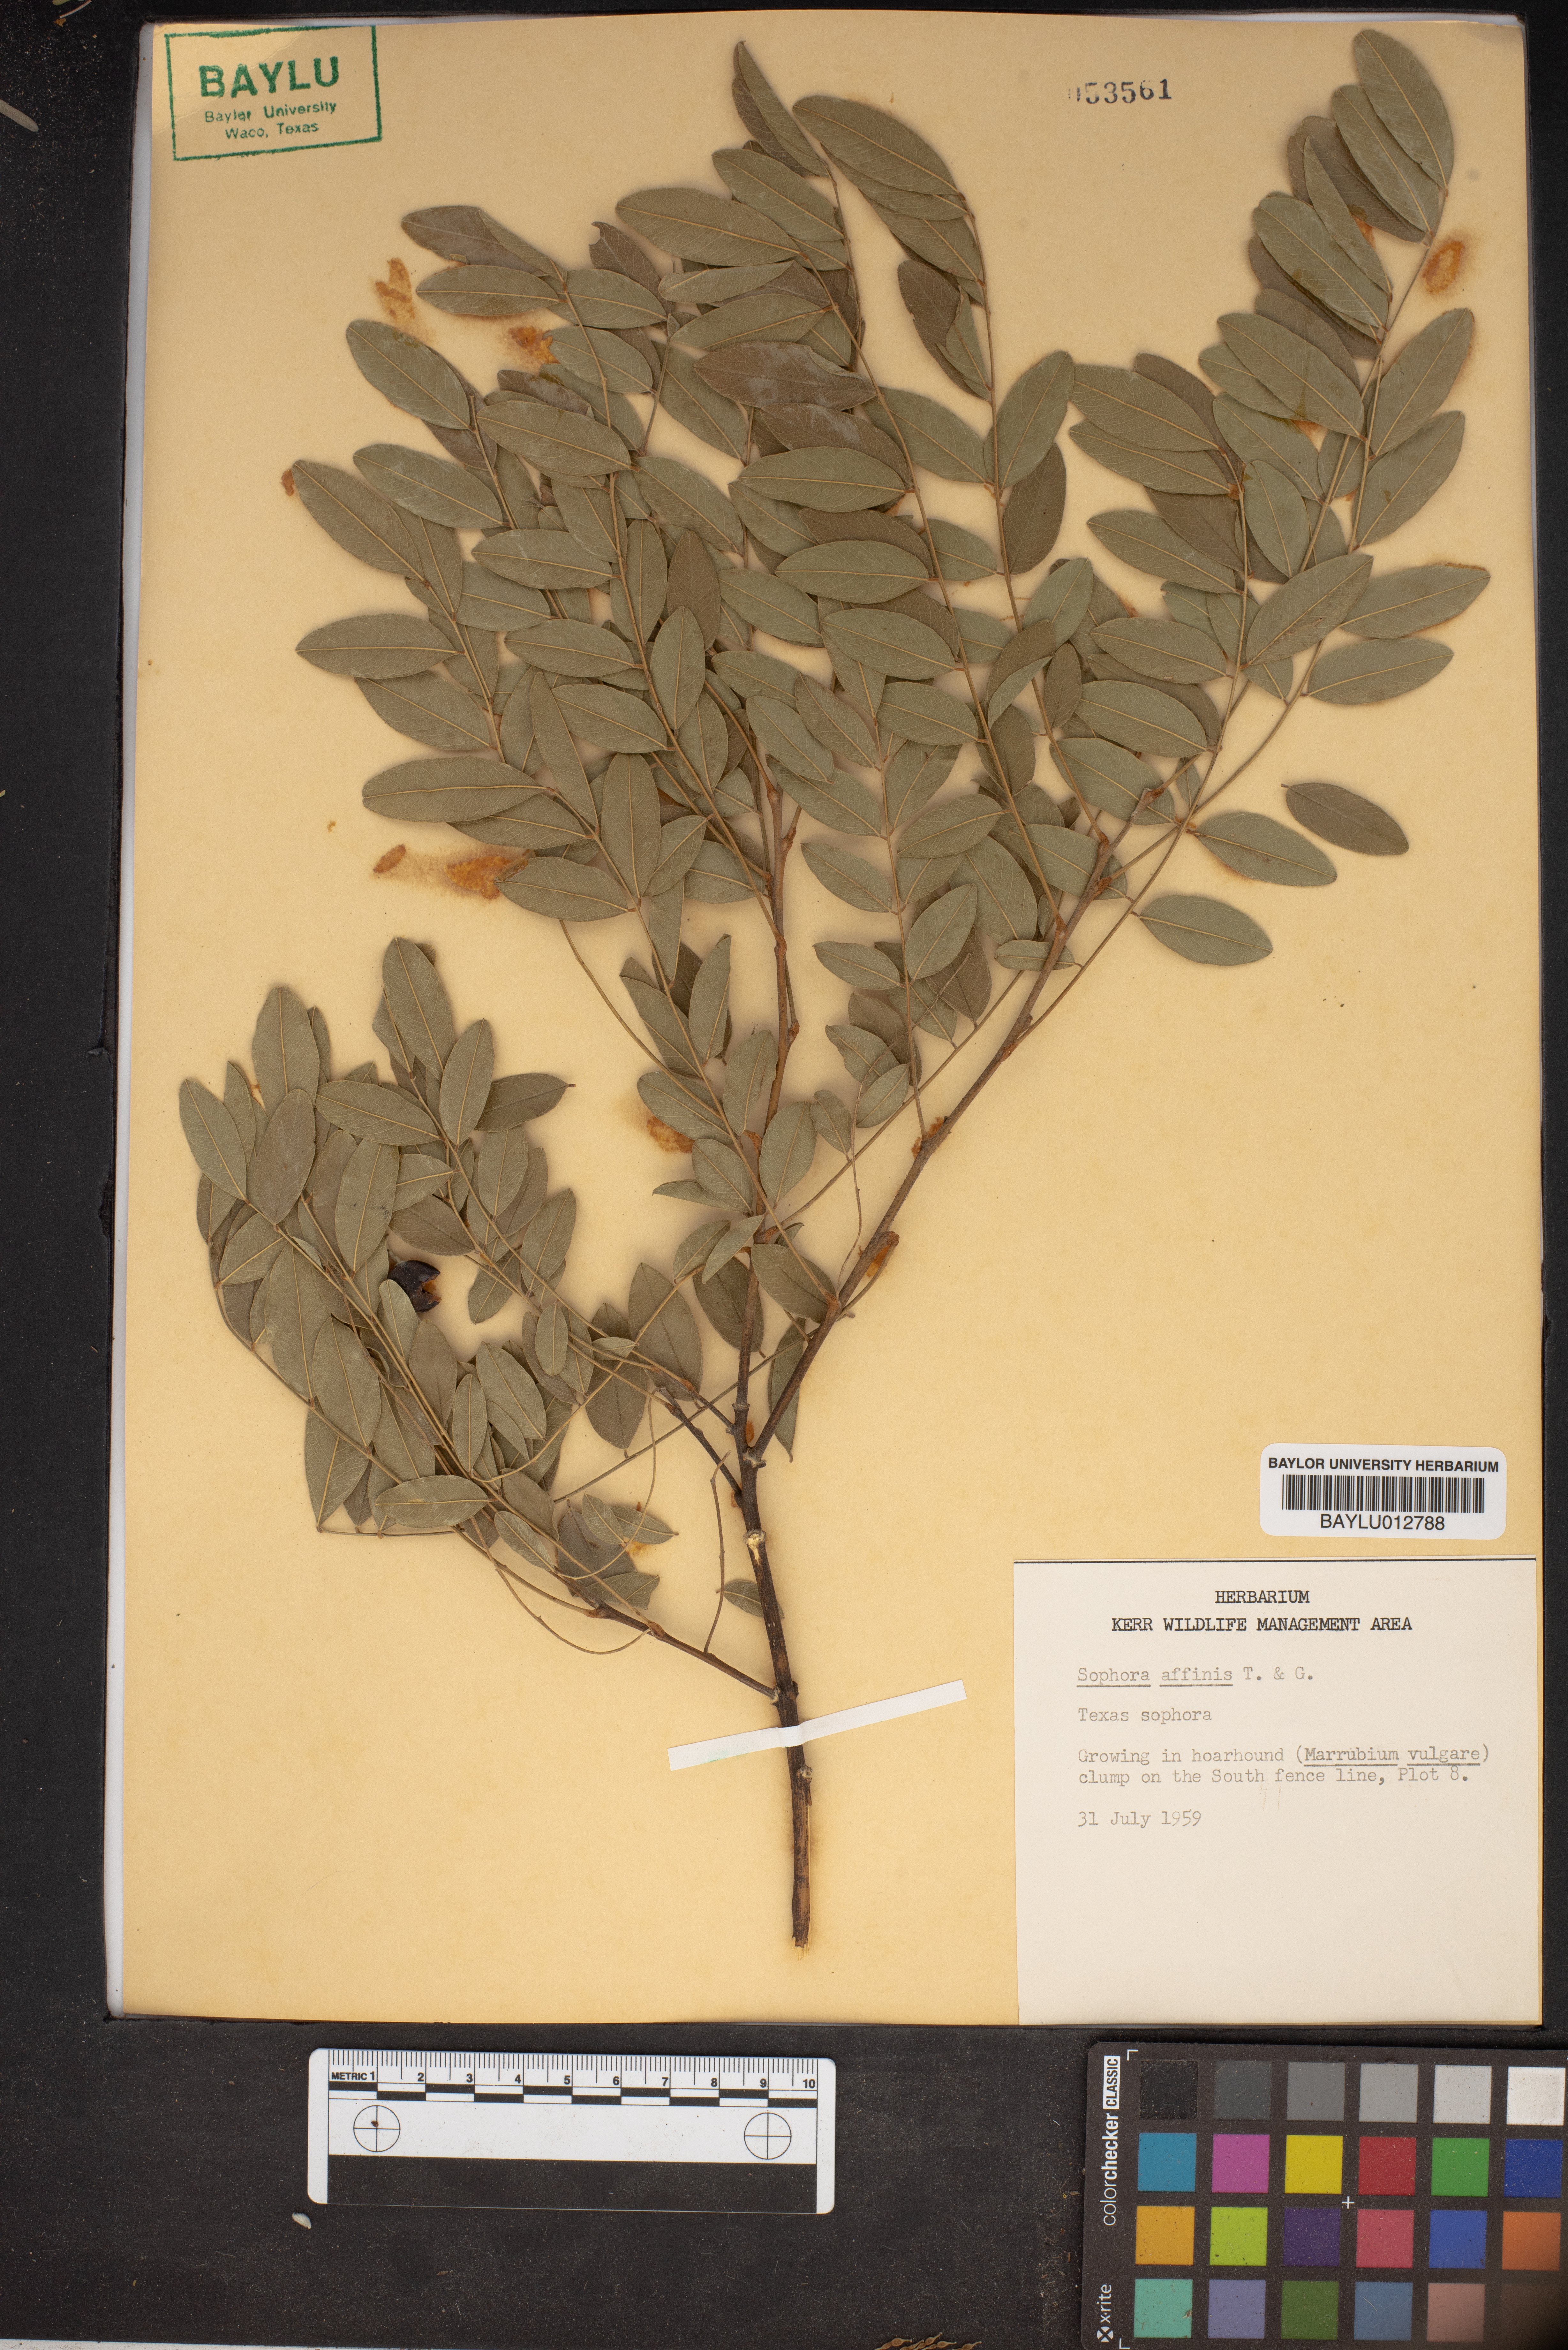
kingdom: Plantae
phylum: Tracheophyta
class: Magnoliopsida
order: Fabales
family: Fabaceae
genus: Styphnolobium
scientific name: Styphnolobium affine
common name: Texas sophora
